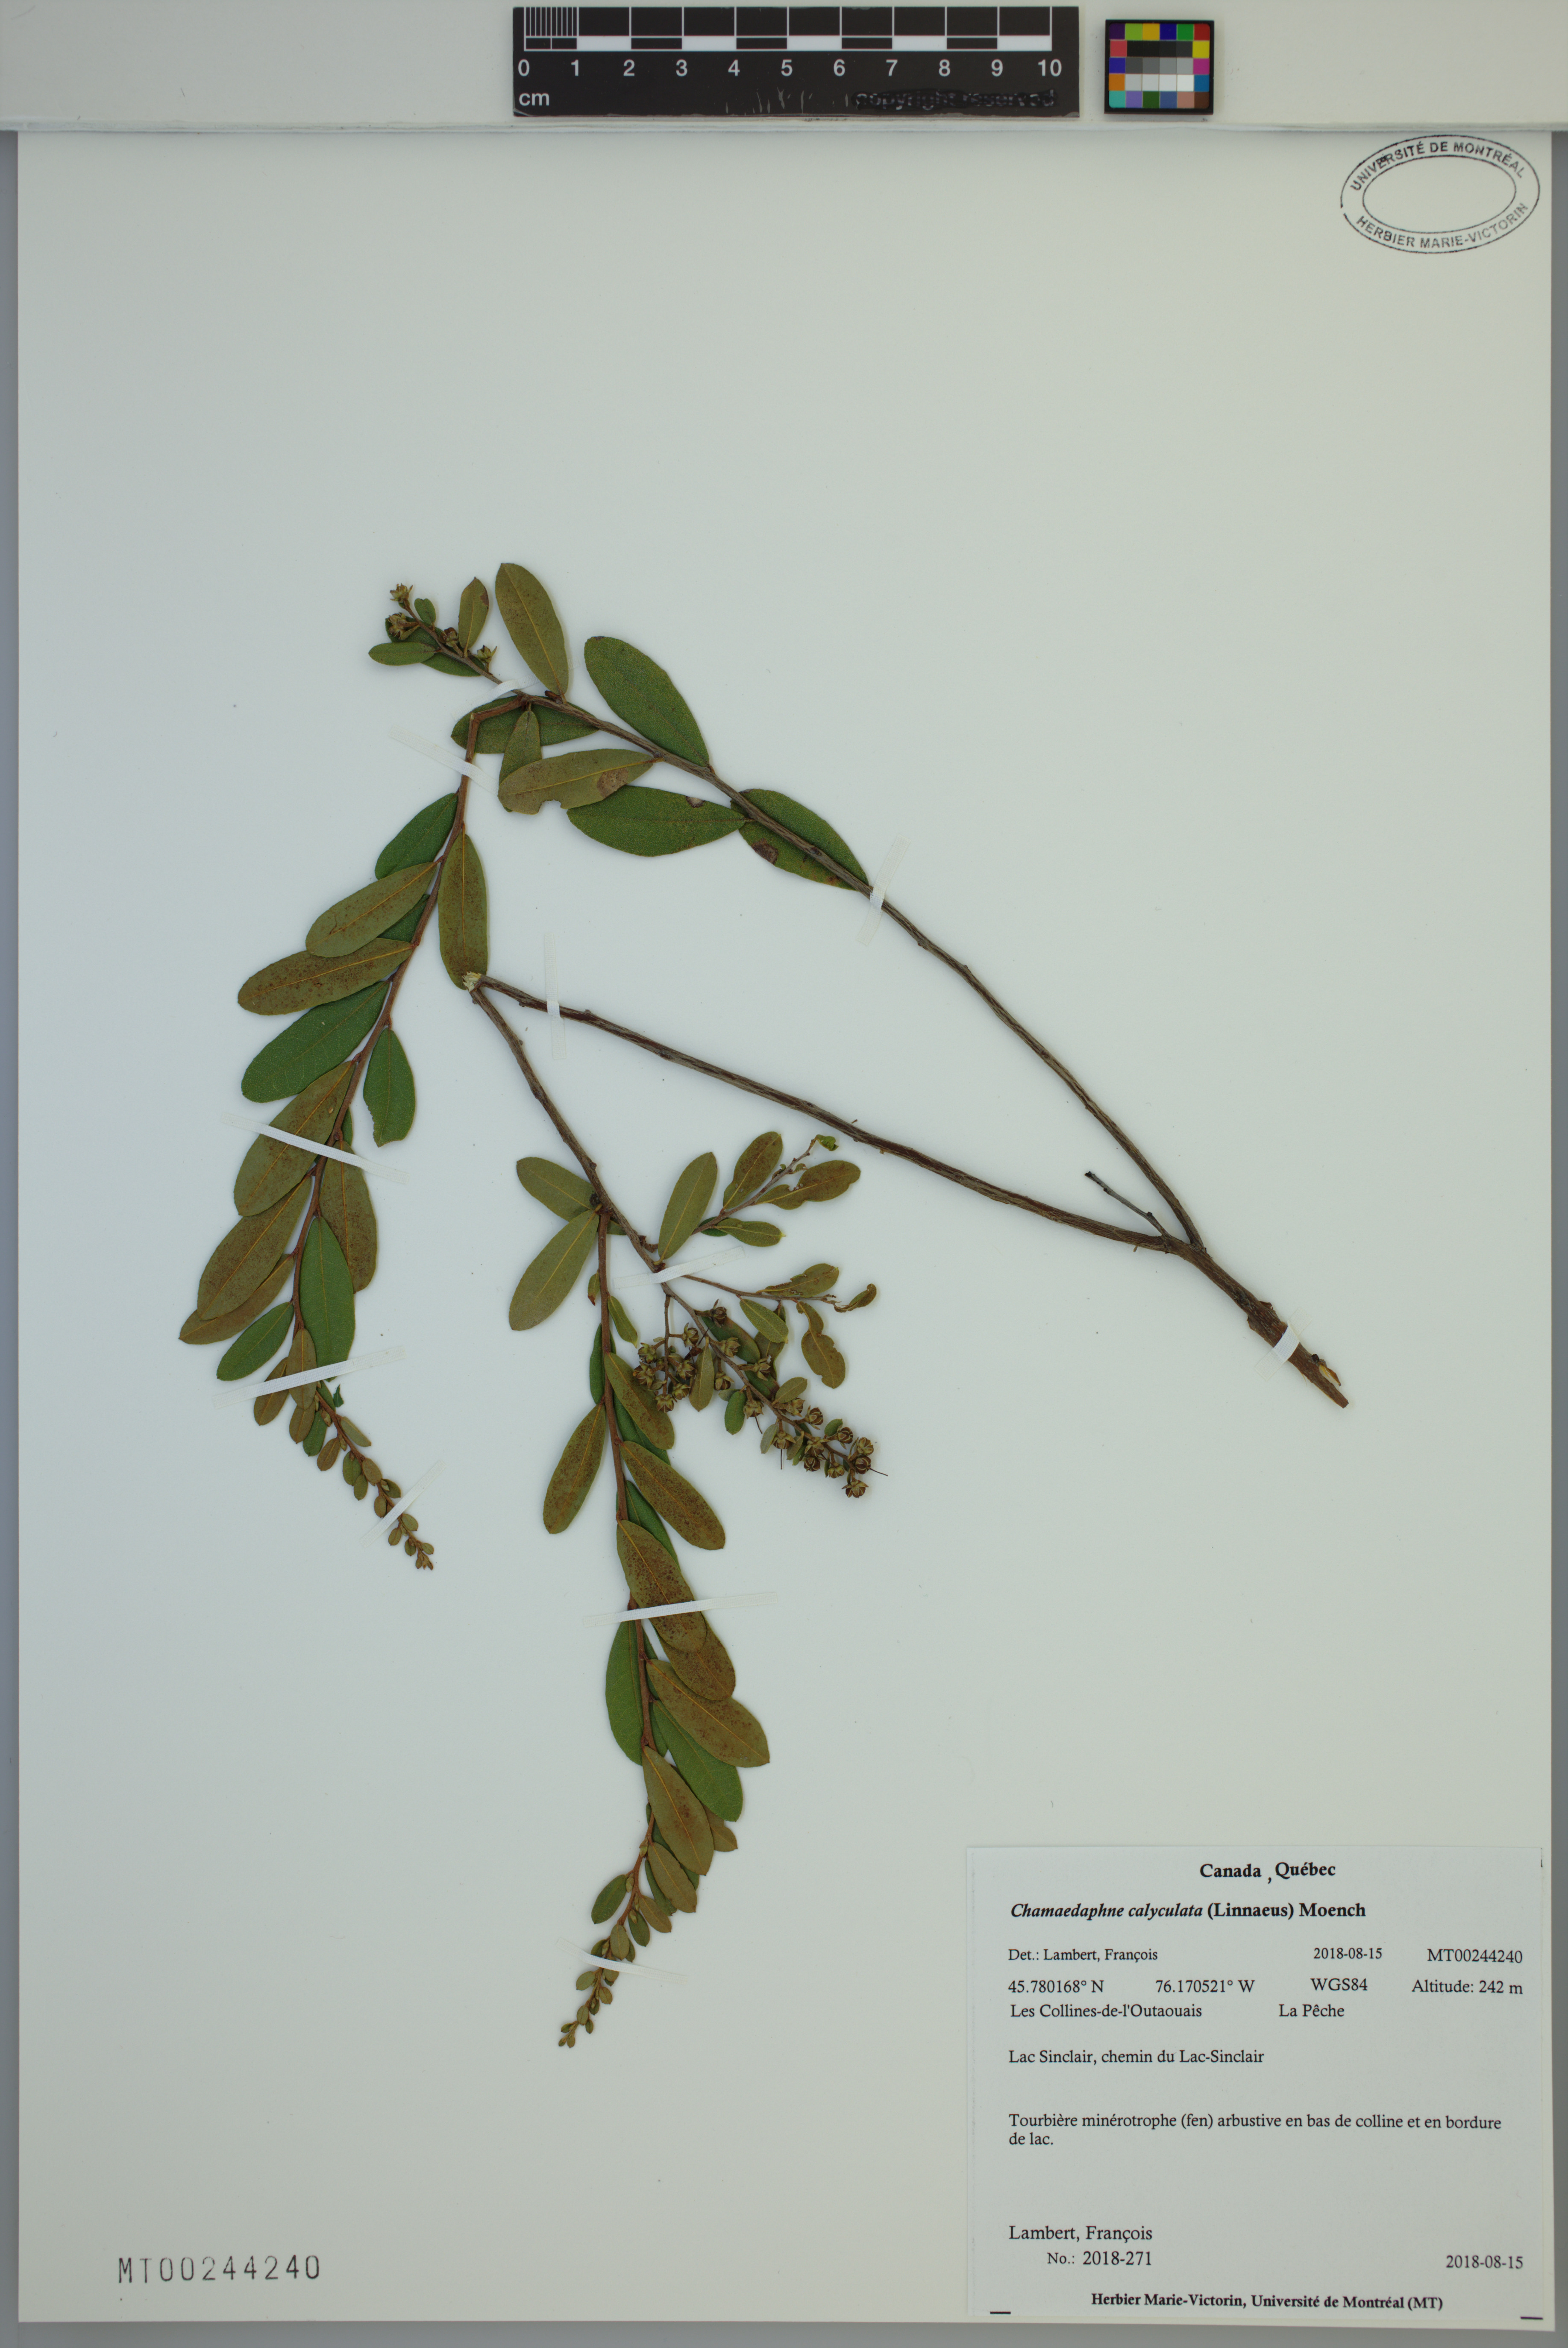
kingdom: Plantae
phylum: Tracheophyta
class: Magnoliopsida
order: Ericales
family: Ericaceae
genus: Chamaedaphne
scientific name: Chamaedaphne calyculata
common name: Leatherleaf
